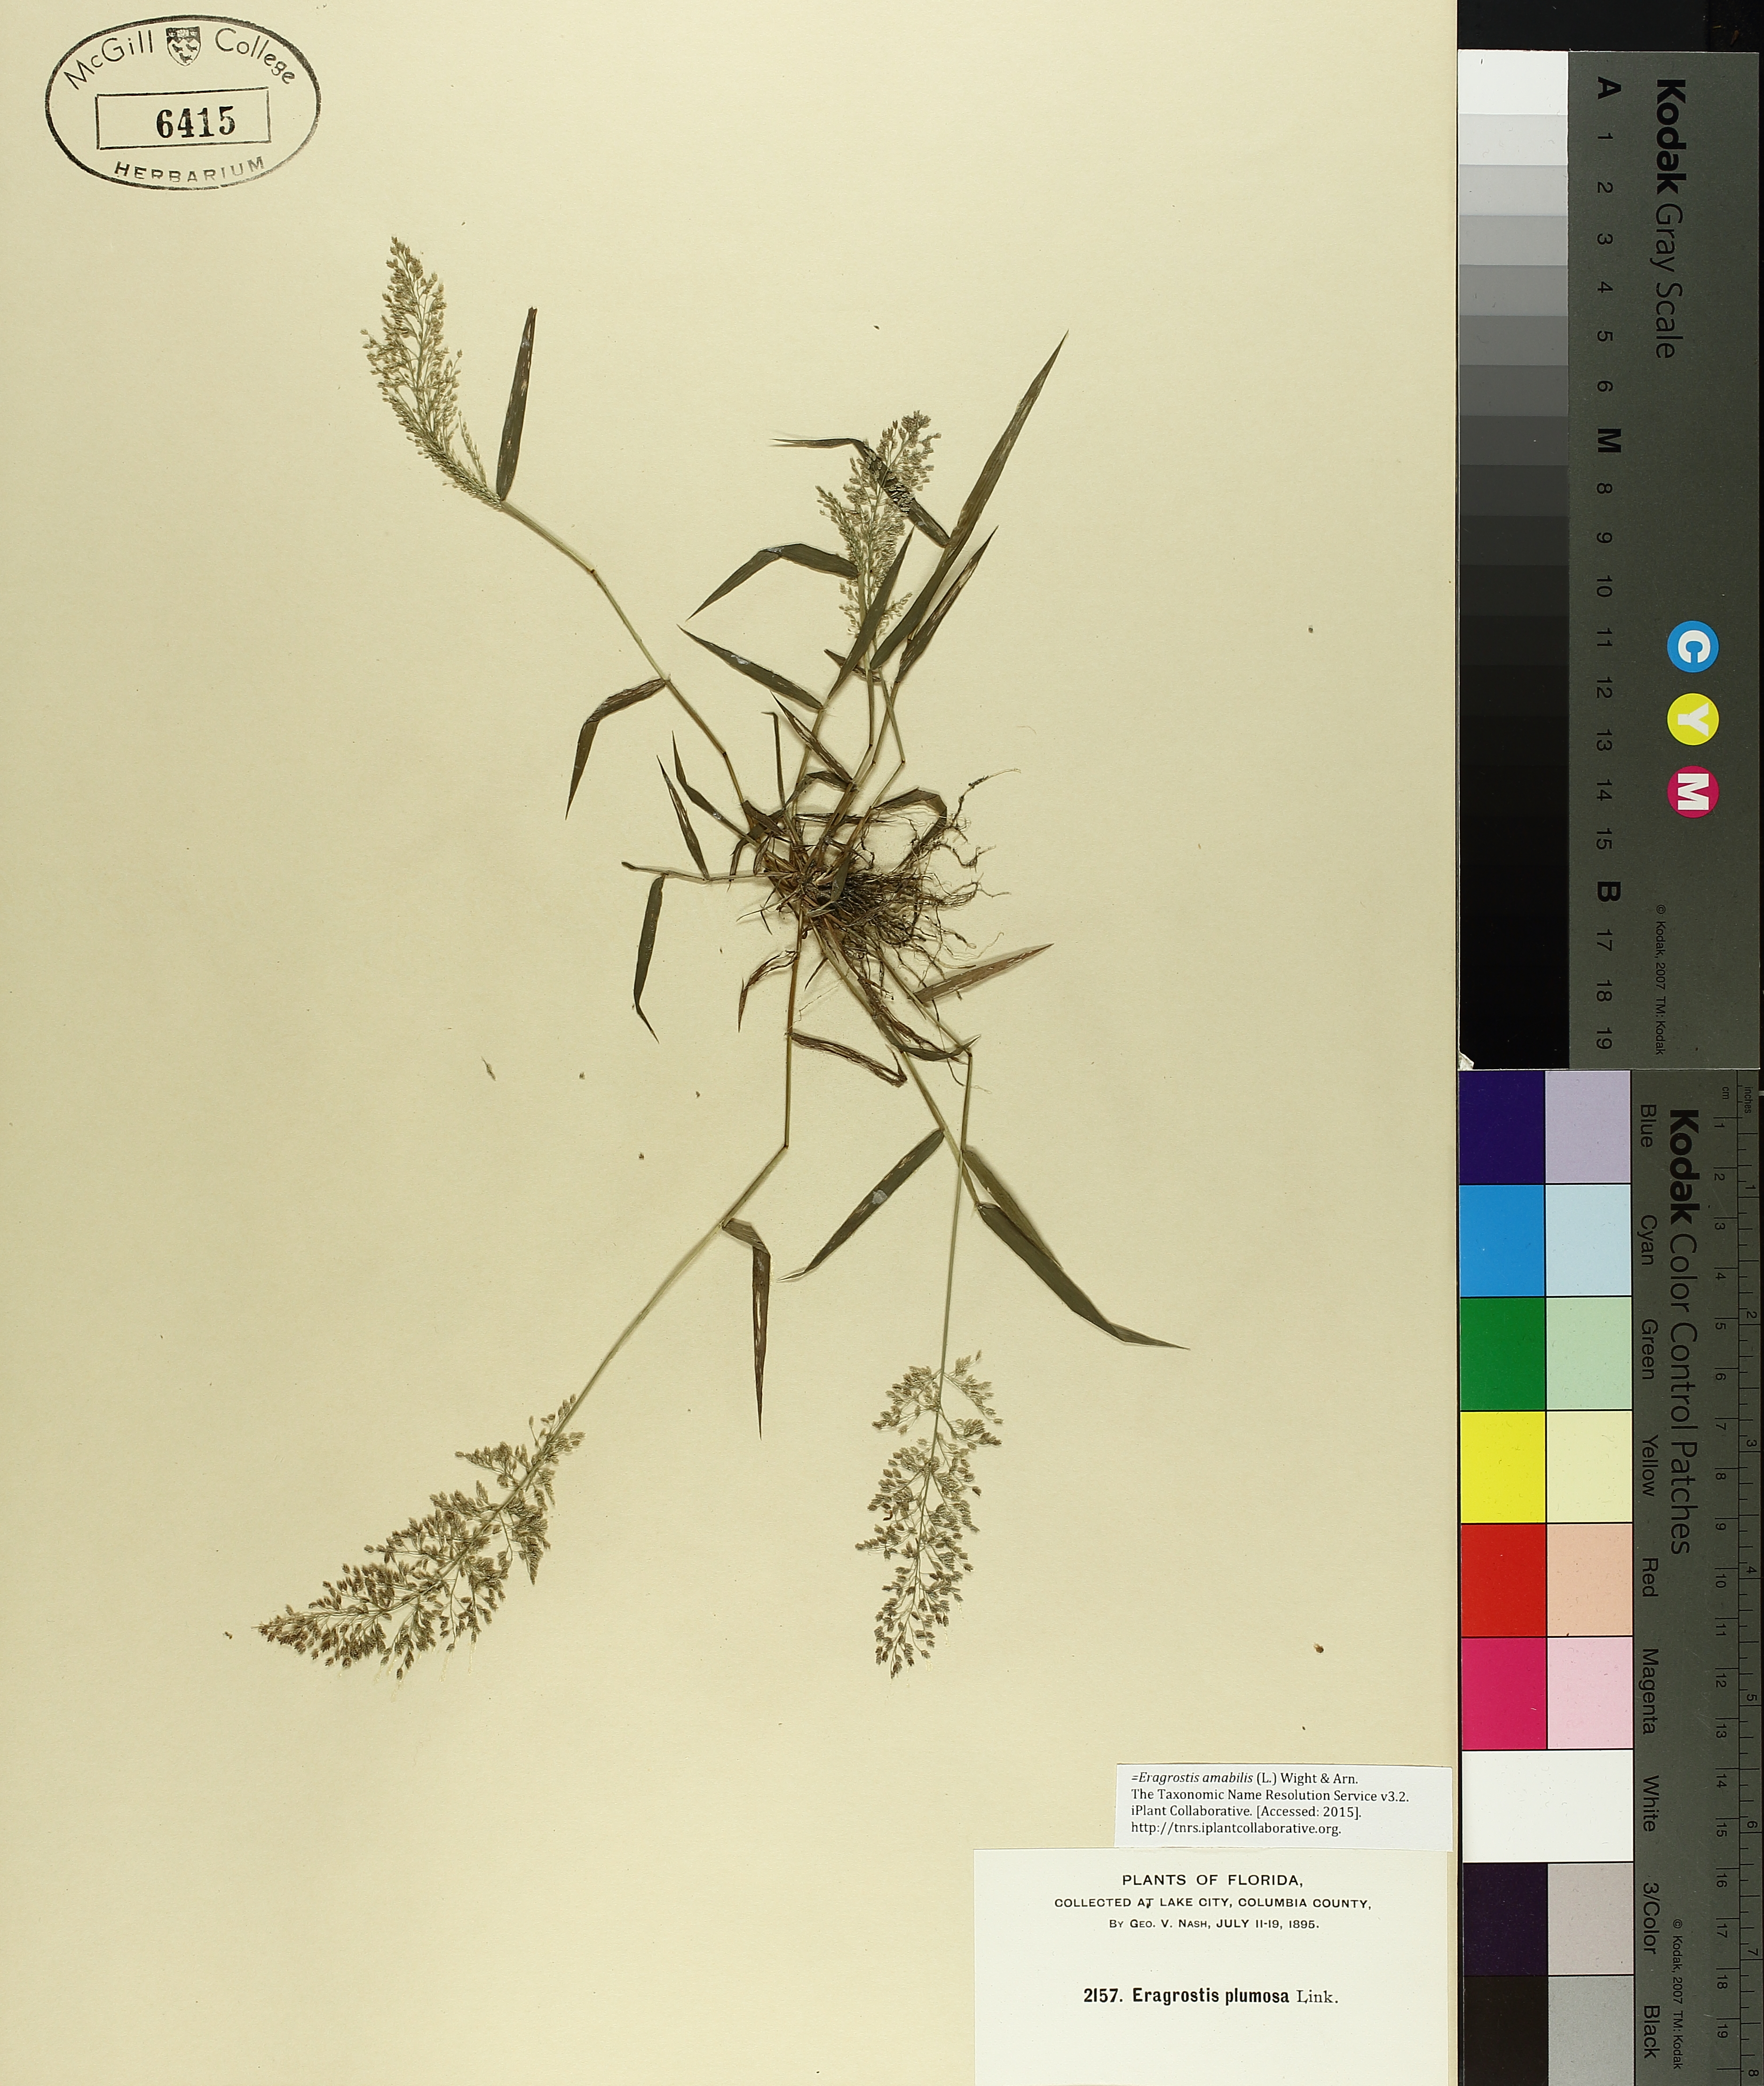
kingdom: Plantae
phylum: Tracheophyta
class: Liliopsida
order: Poales
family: Poaceae
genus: Eragrostis
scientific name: Eragrostis viscosa
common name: Sticky love grass
